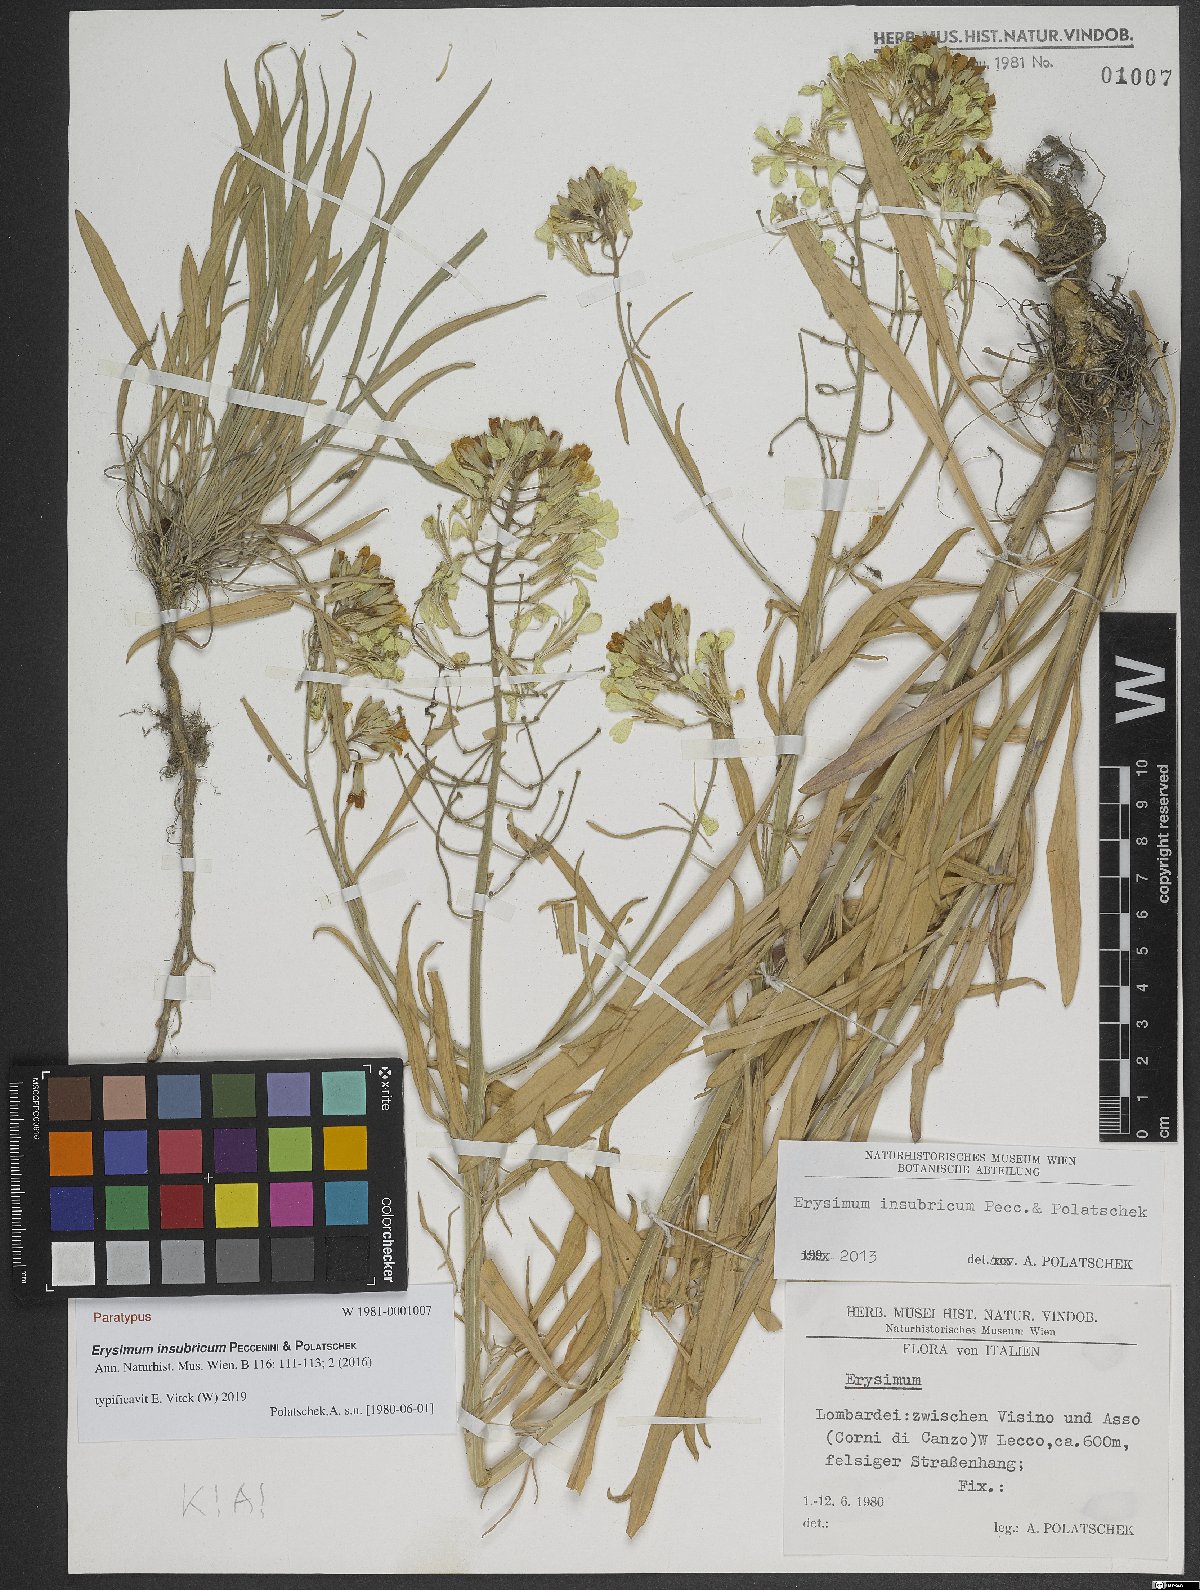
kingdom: Plantae
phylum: Tracheophyta
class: Magnoliopsida
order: Brassicales
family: Brassicaceae
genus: Erysimum
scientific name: Erysimum insubricum
